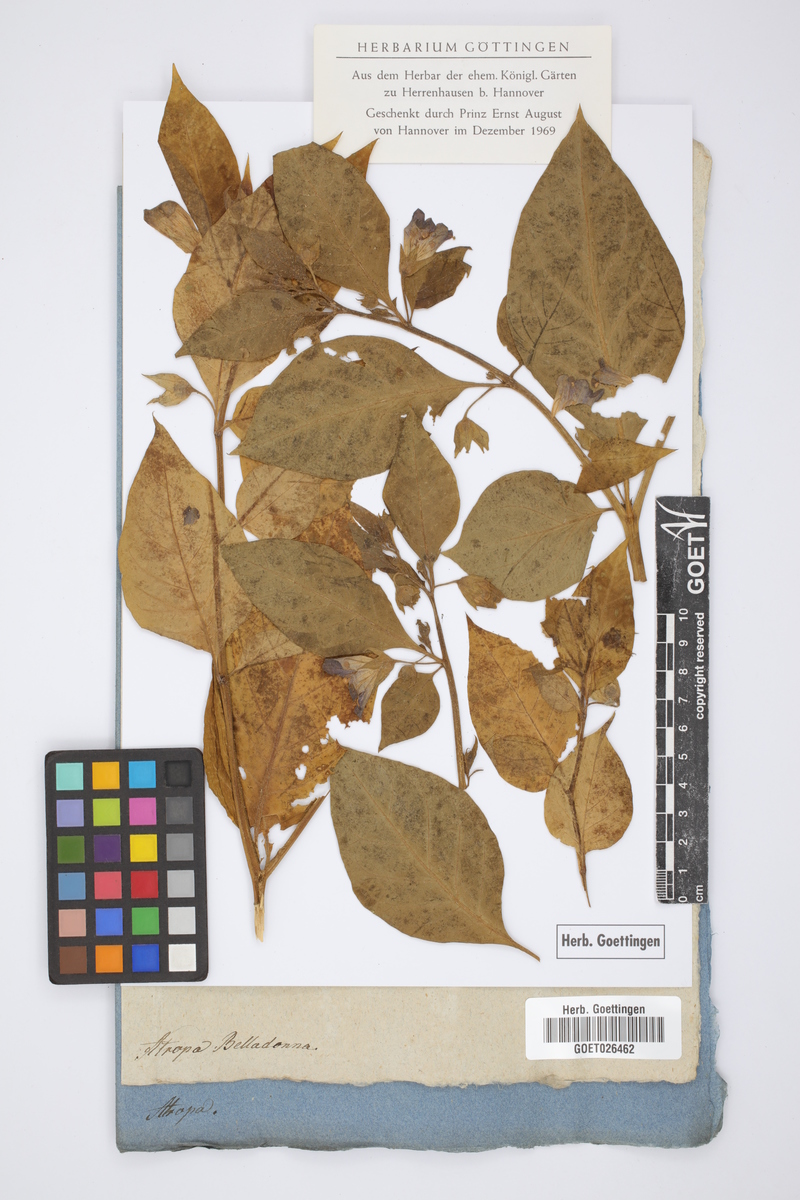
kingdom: Plantae
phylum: Tracheophyta
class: Magnoliopsida
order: Solanales
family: Solanaceae
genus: Atropa
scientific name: Atropa belladonna
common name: Deadly nightshade
